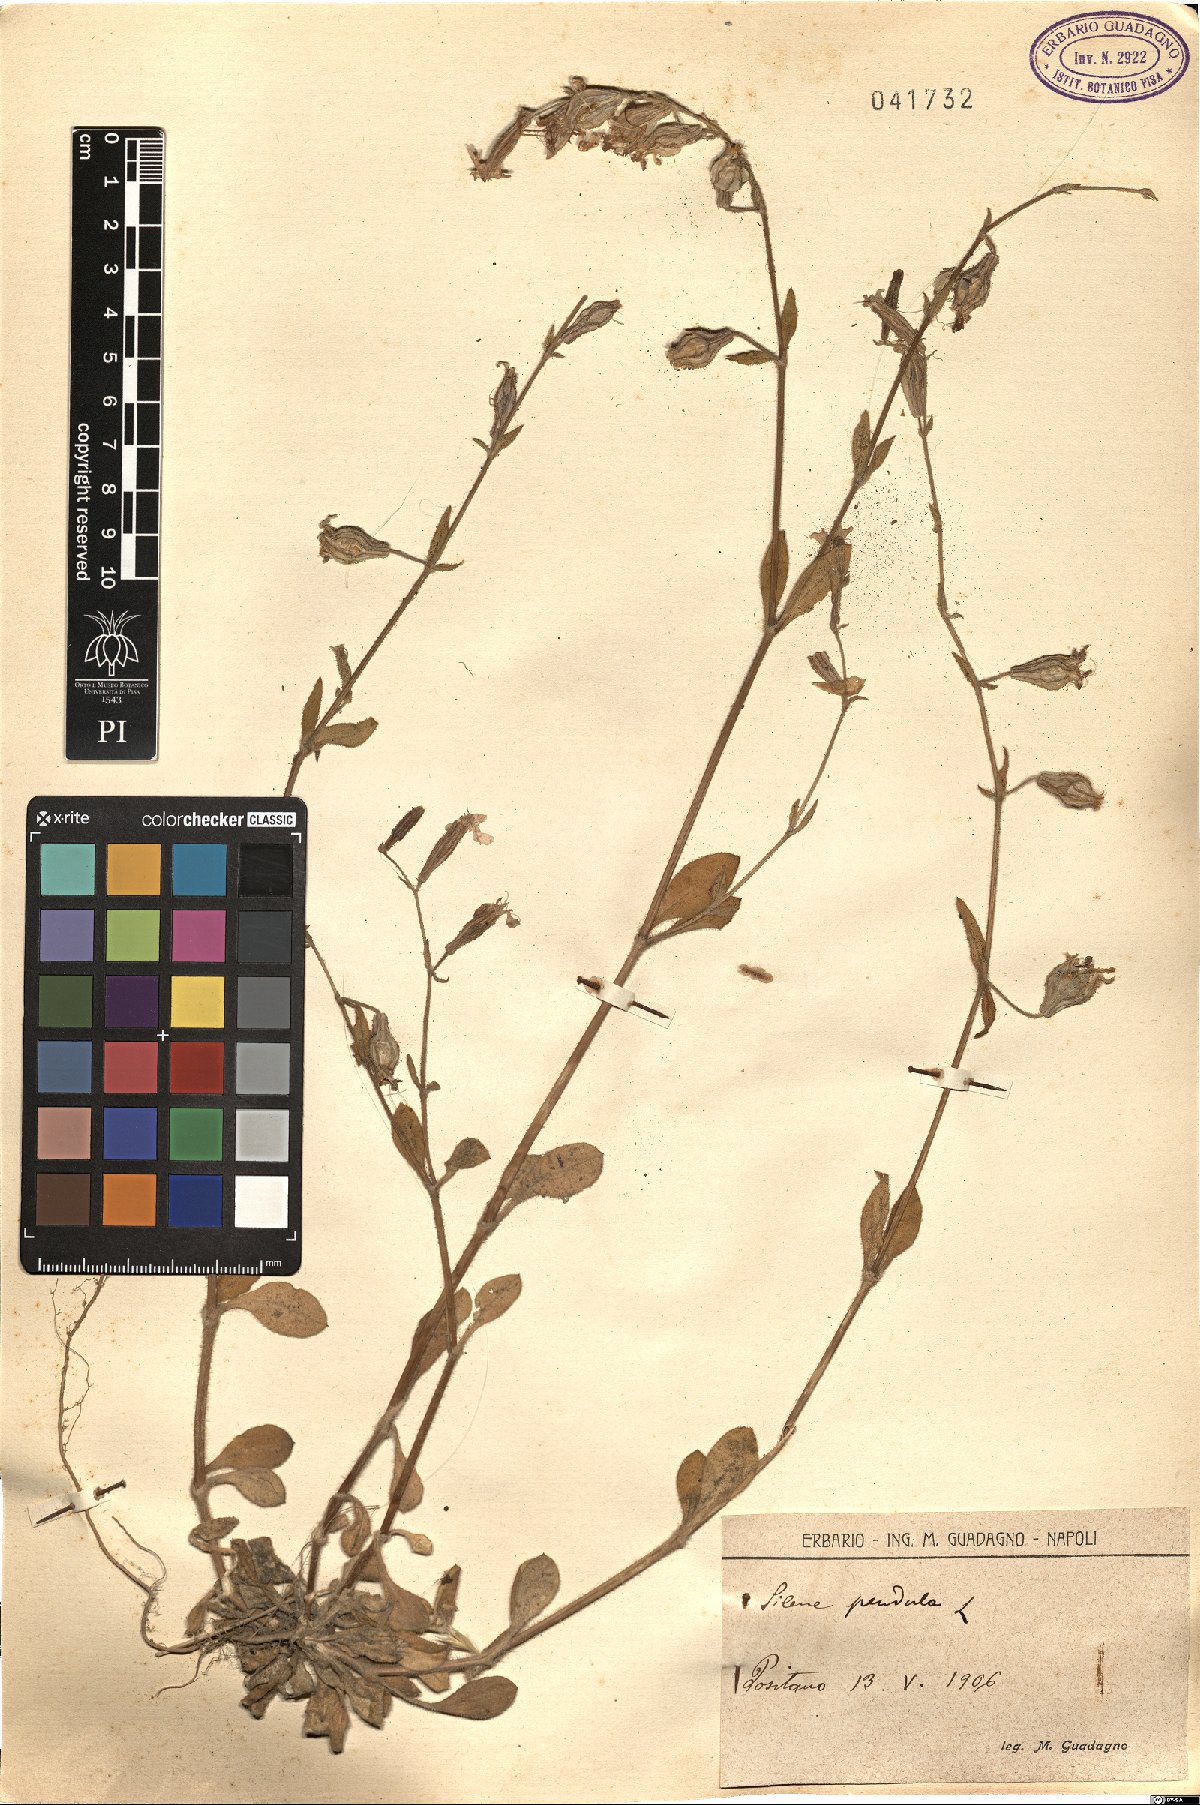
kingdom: Plantae
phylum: Tracheophyta
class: Magnoliopsida
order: Caryophyllales
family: Caryophyllaceae
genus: Silene
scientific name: Silene pendula
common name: Nodding catchfly
